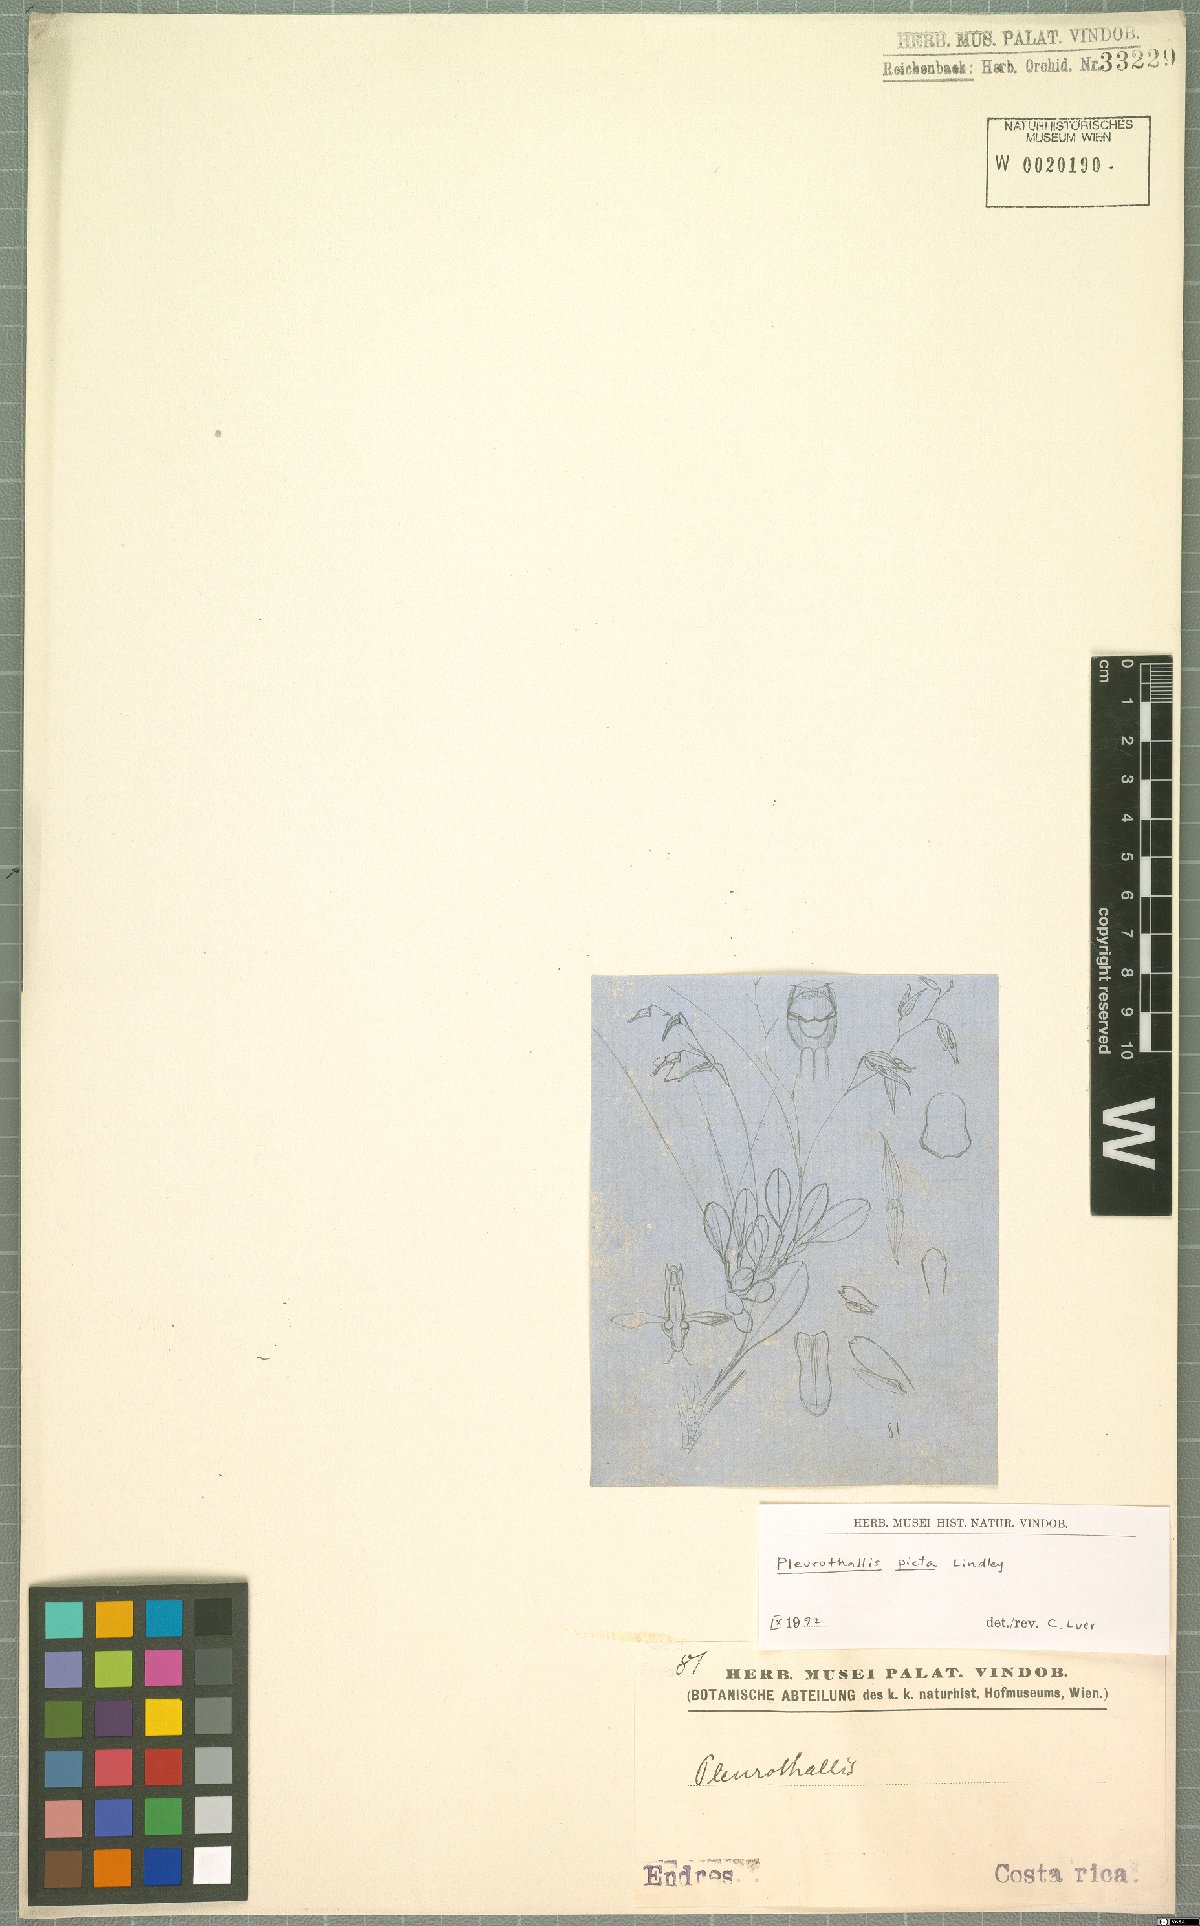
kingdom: Plantae
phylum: Tracheophyta
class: Liliopsida
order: Asparagales
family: Orchidaceae
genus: Specklinia
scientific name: Specklinia picta
